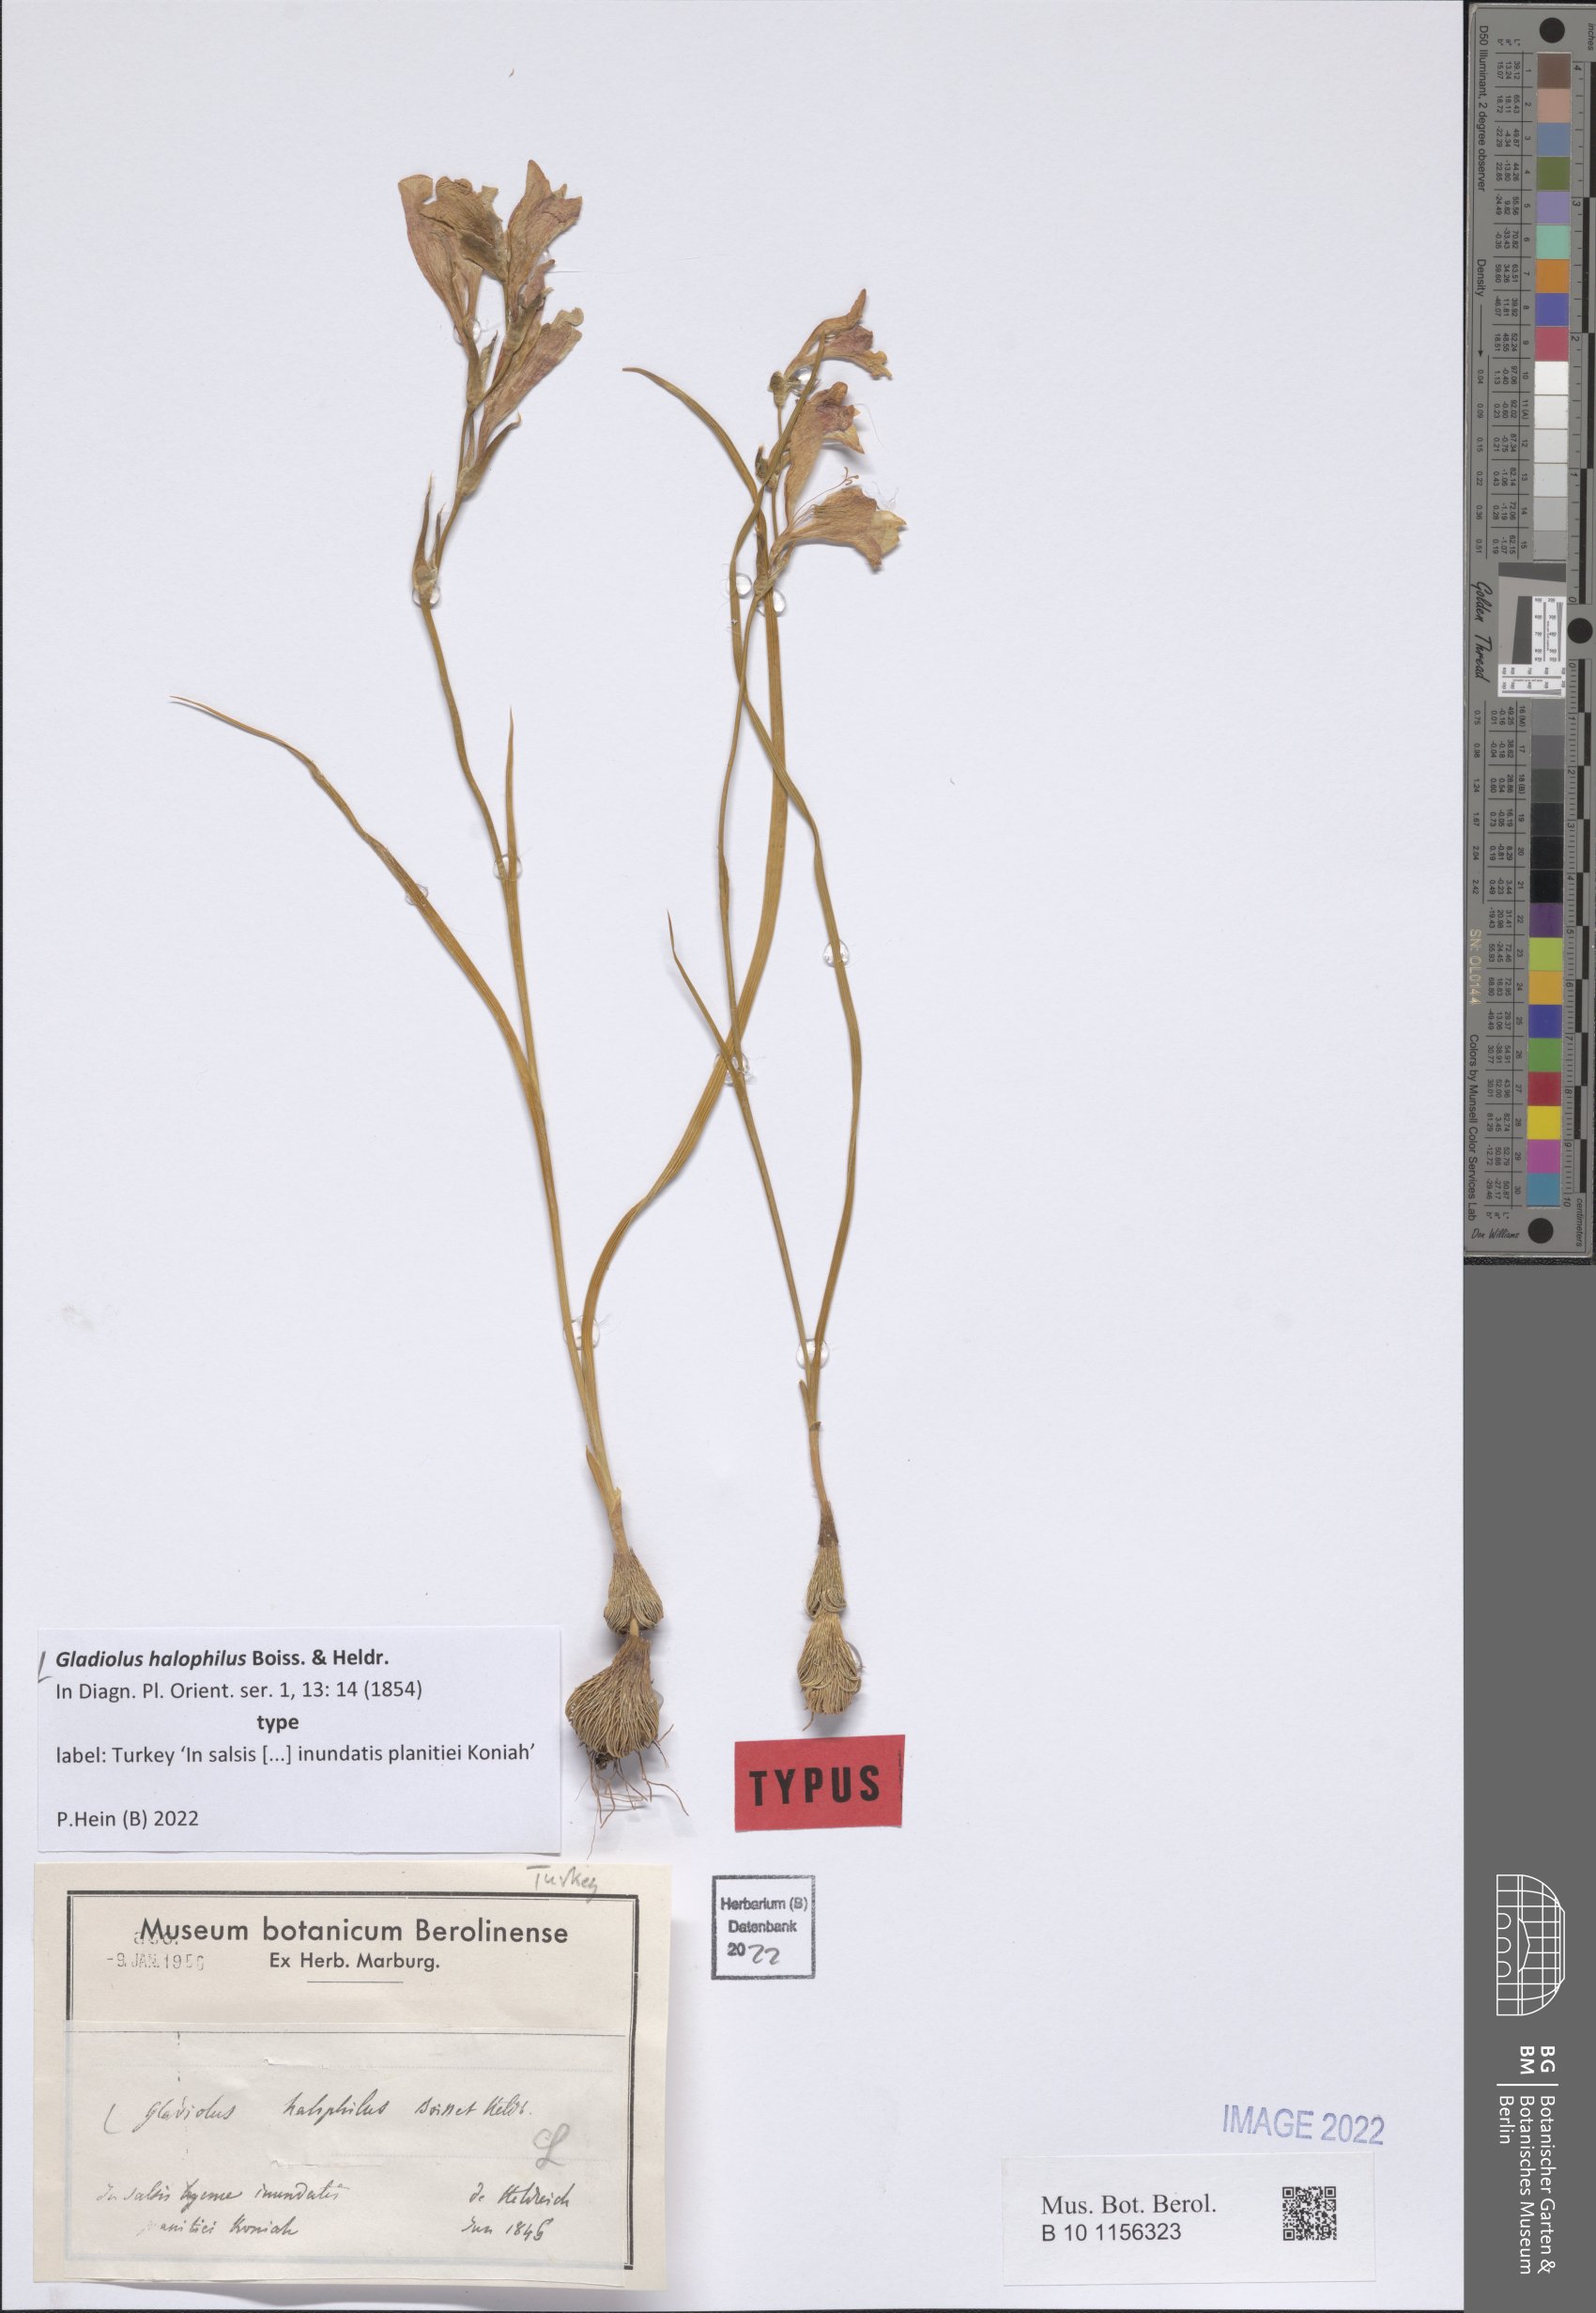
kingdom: Plantae
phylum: Tracheophyta
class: Liliopsida
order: Asparagales
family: Iridaceae
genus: Gladiolus
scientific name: Gladiolus halophilus
